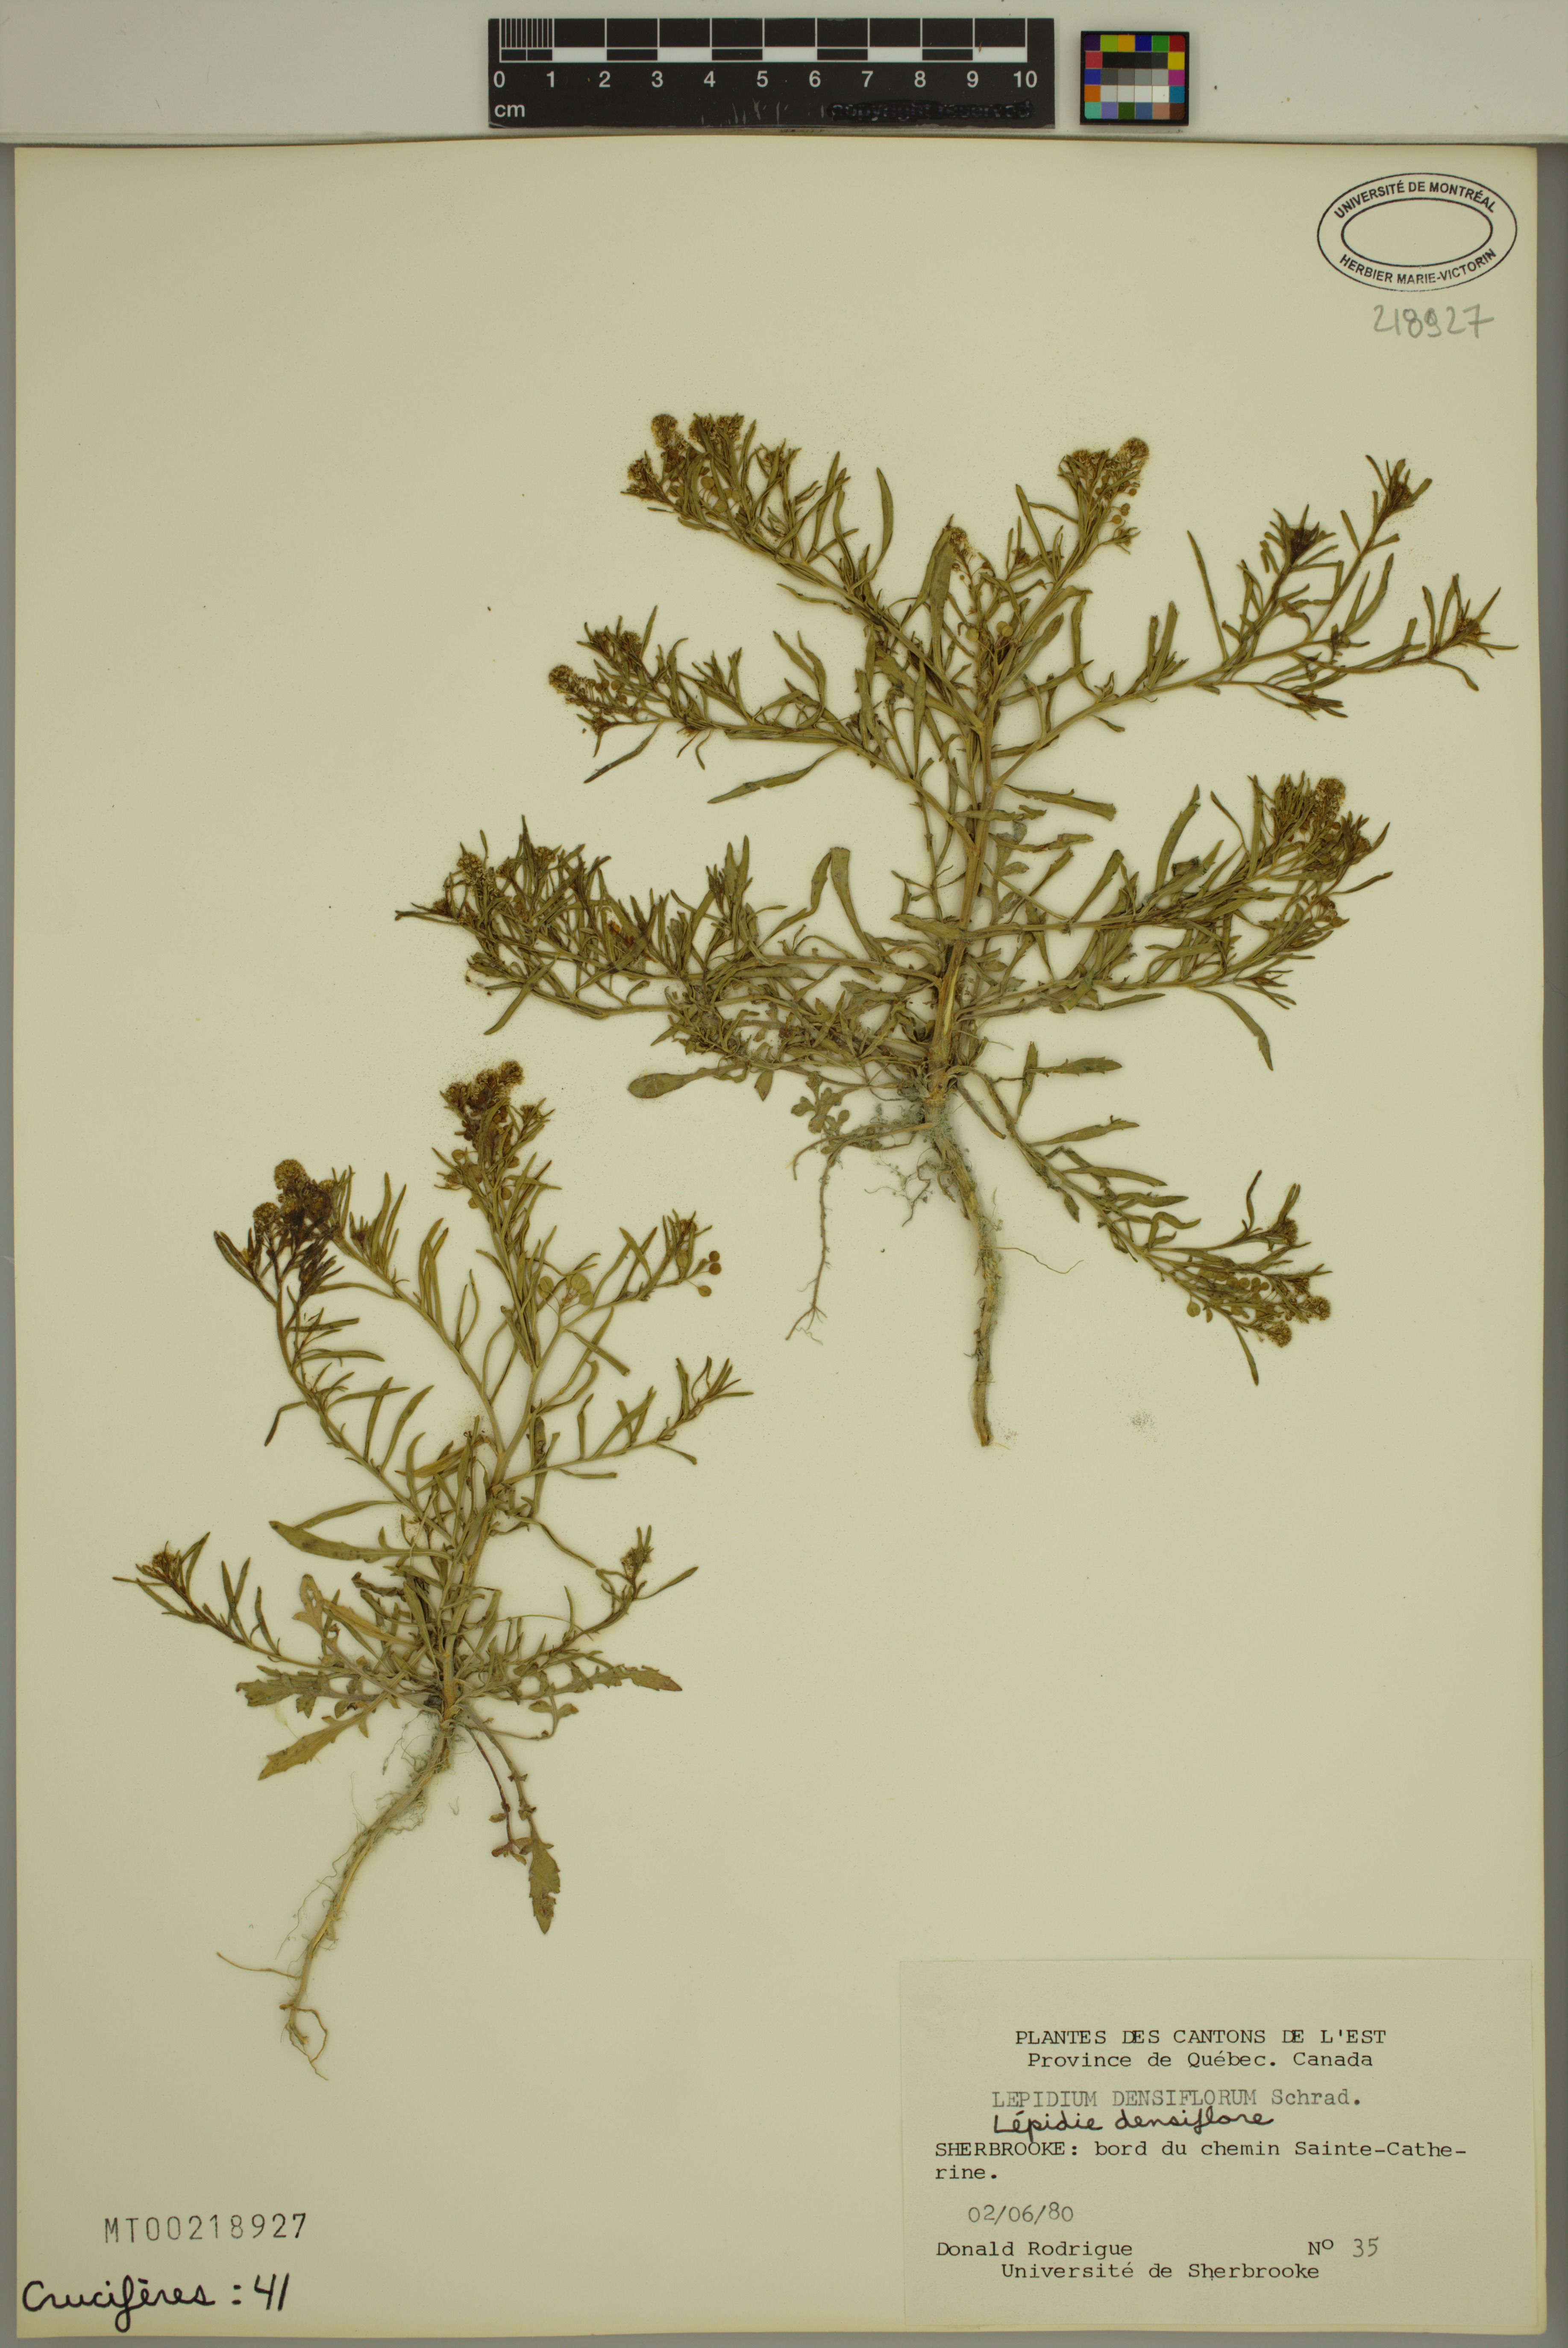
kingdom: Plantae
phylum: Tracheophyta
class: Magnoliopsida
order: Brassicales
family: Brassicaceae
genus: Lepidium
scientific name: Lepidium densiflorum
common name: Miner's pepperwort
